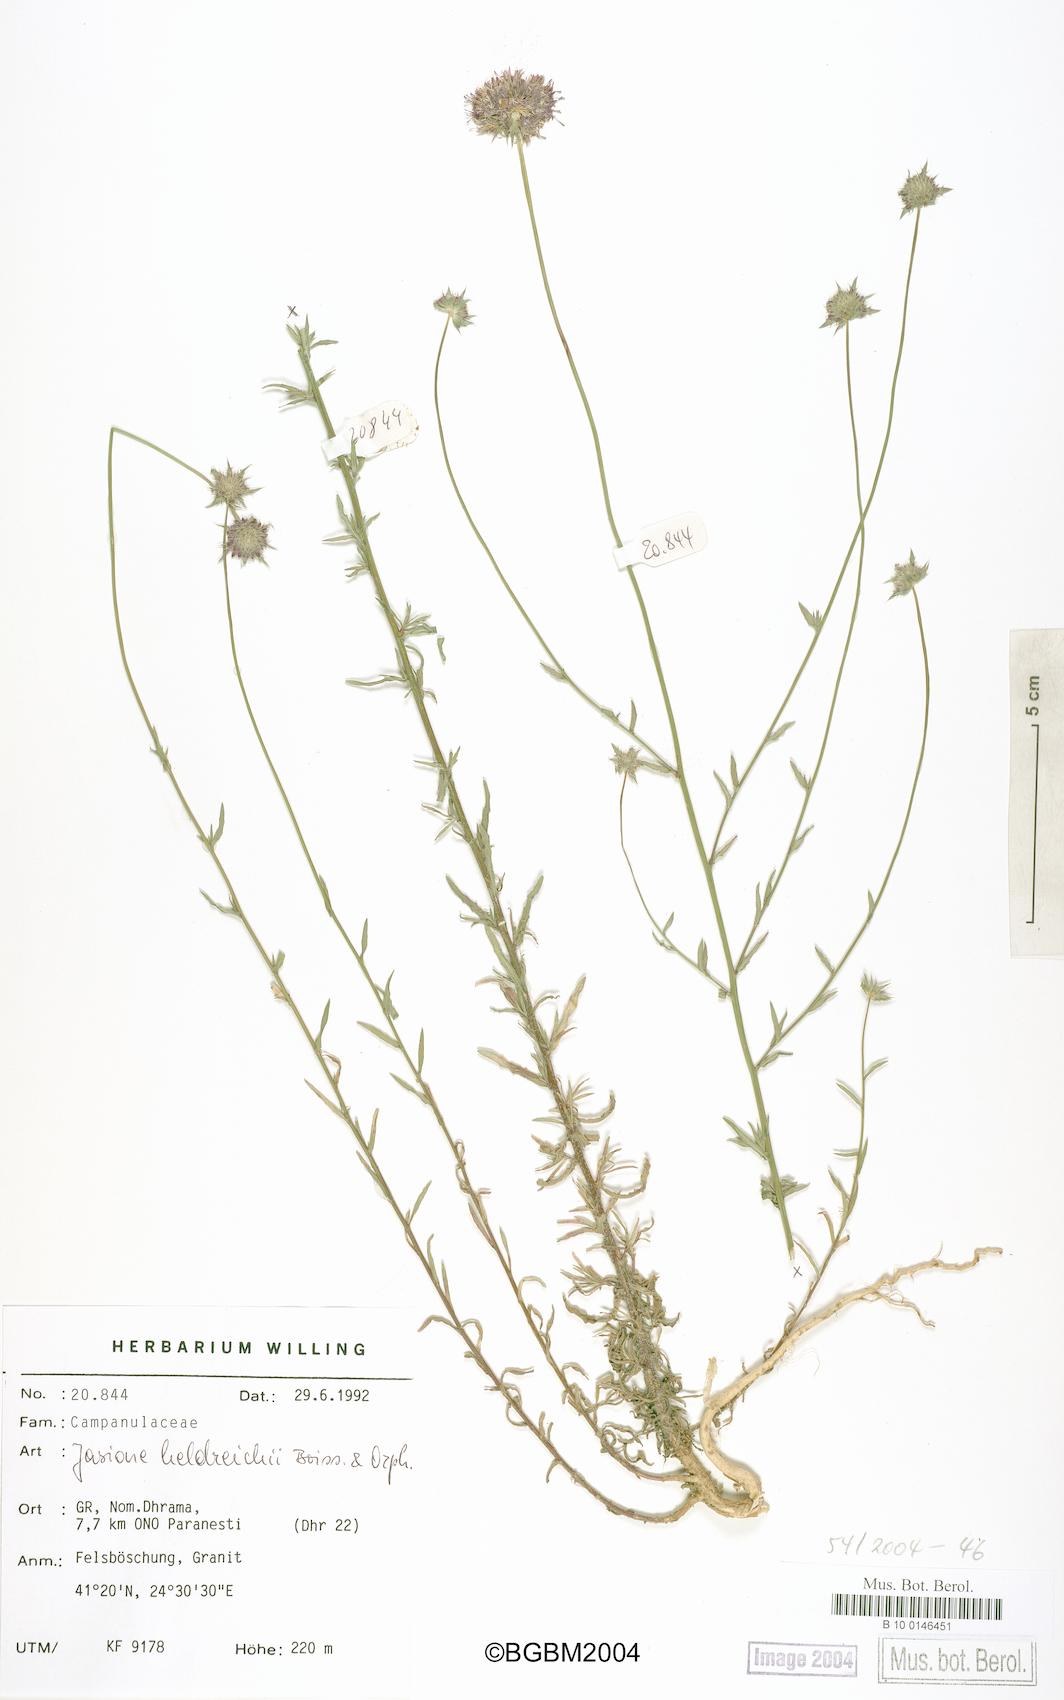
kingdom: Plantae
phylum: Tracheophyta
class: Magnoliopsida
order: Asterales
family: Campanulaceae
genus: Jasione
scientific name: Jasione heldreichii
